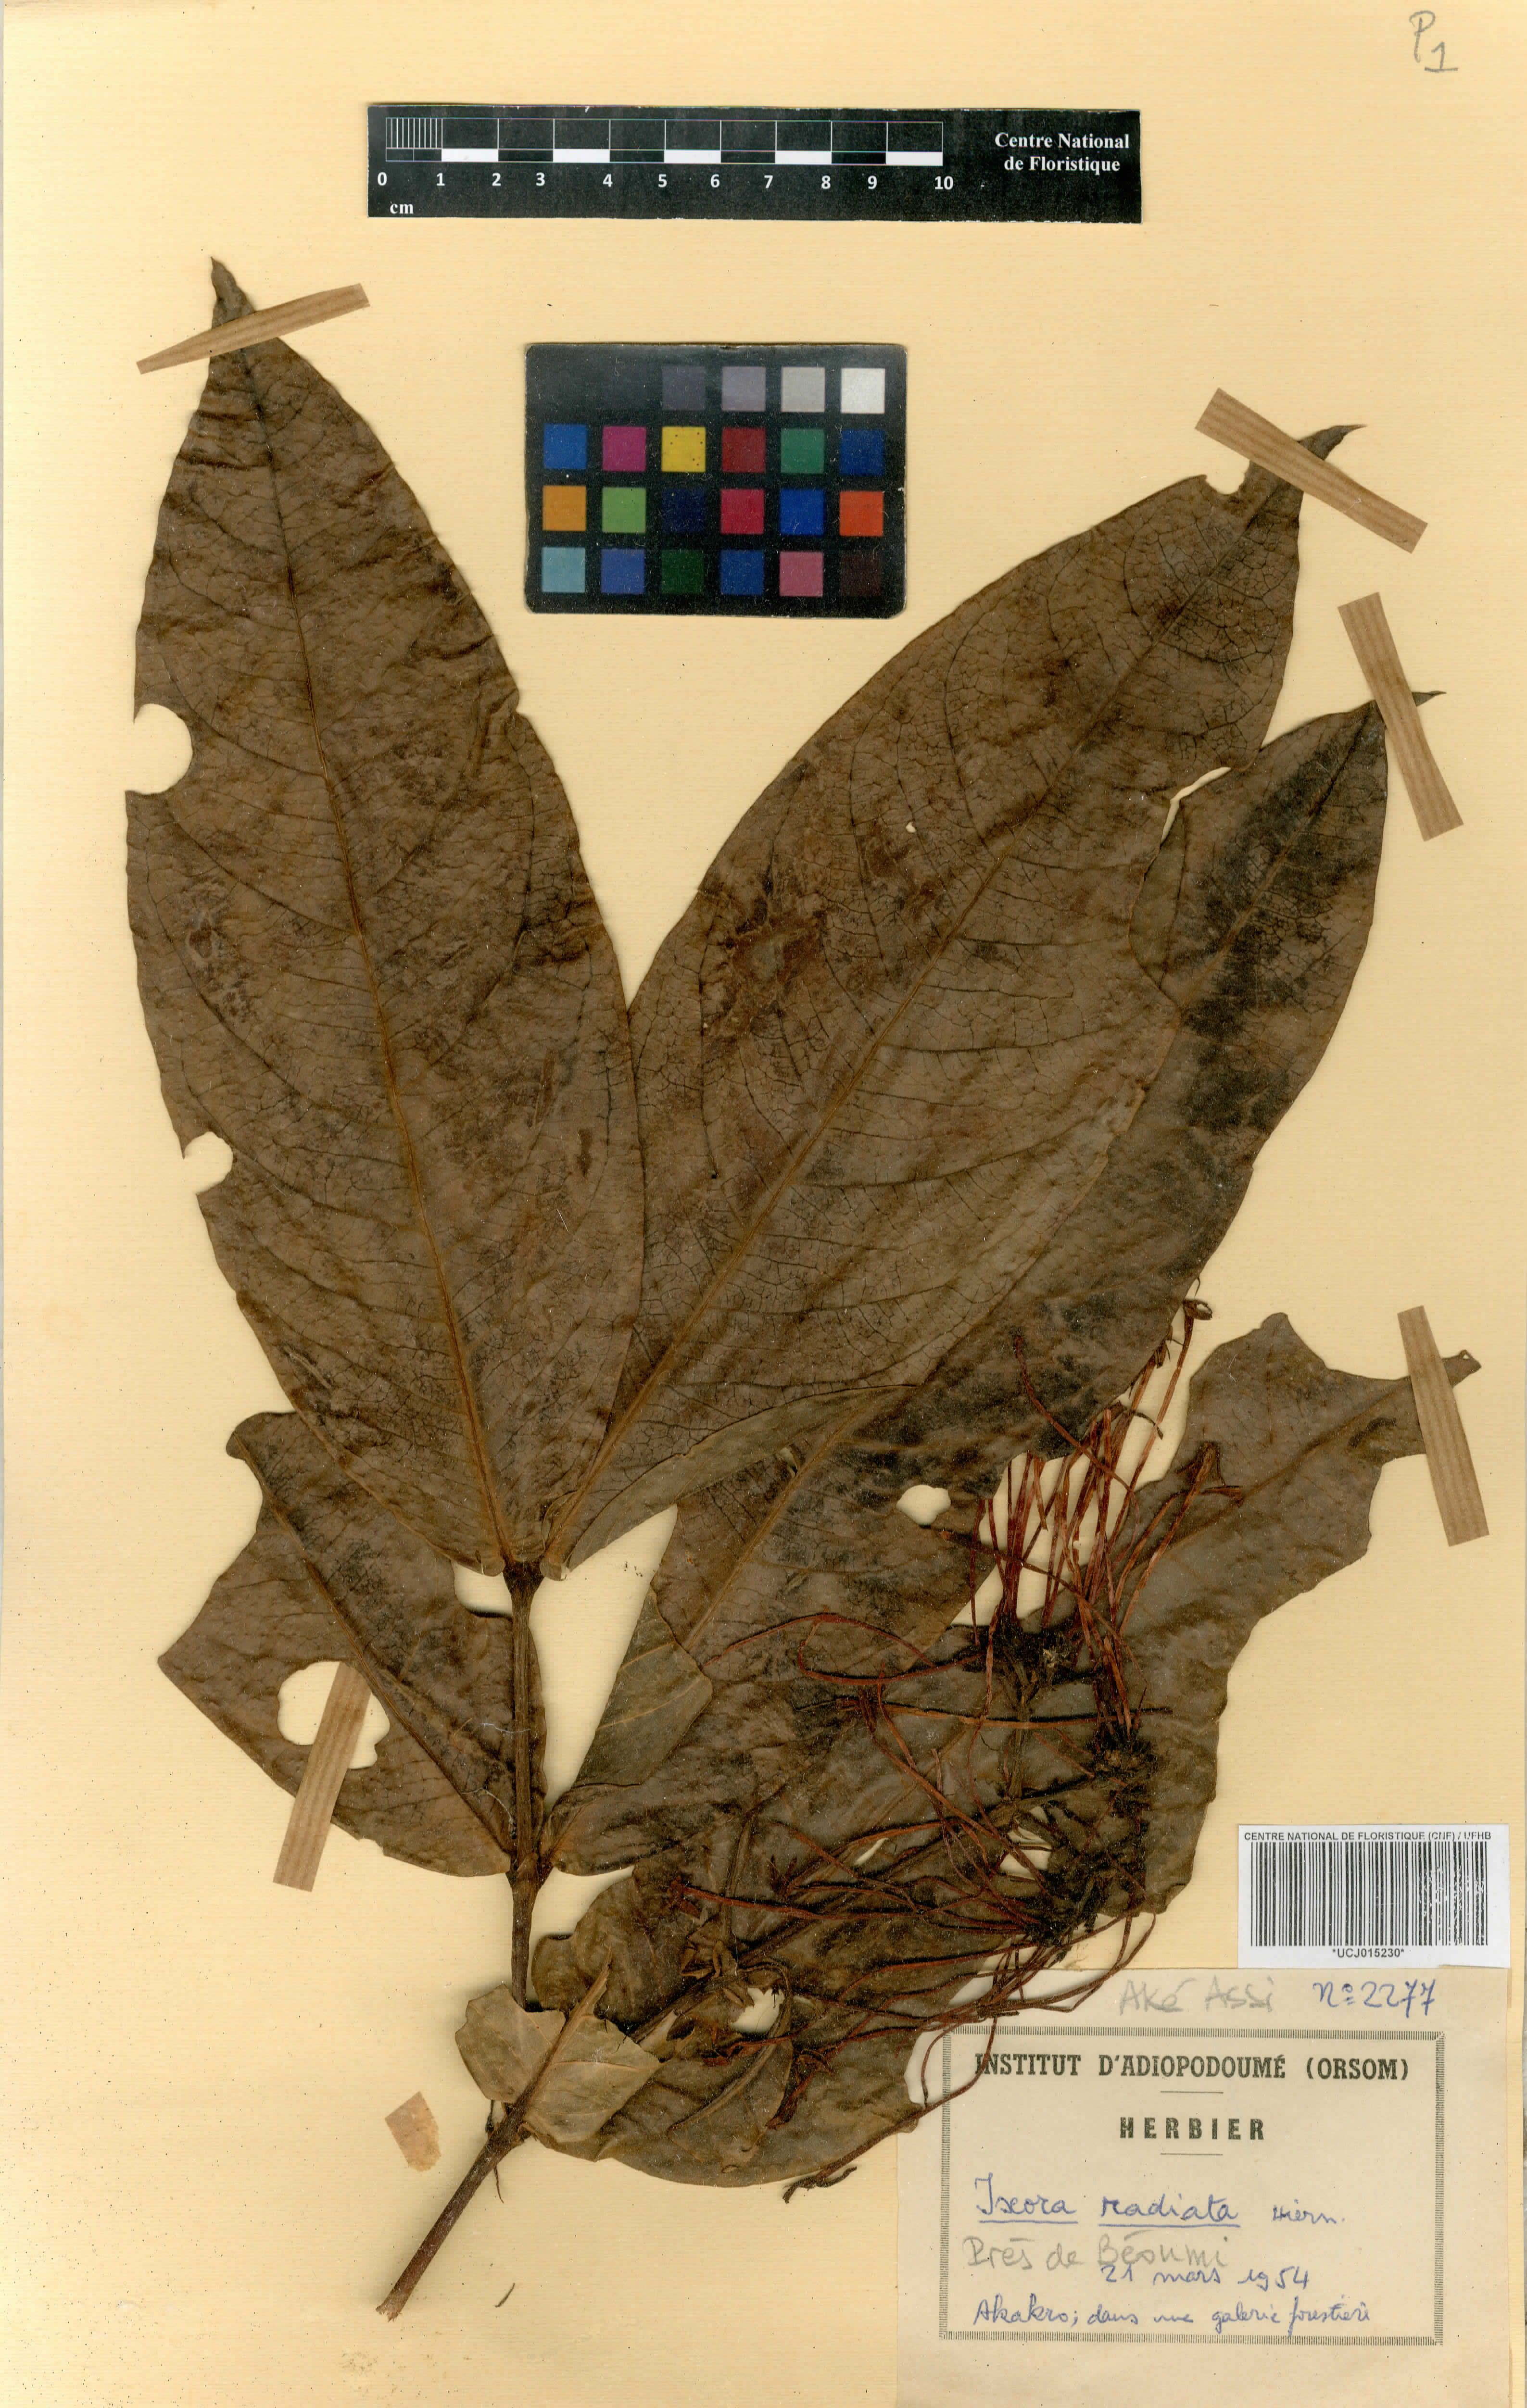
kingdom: Plantae
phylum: Tracheophyta
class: Magnoliopsida
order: Gentianales
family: Rubiaceae
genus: Ixora
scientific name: Ixora brachypoda
